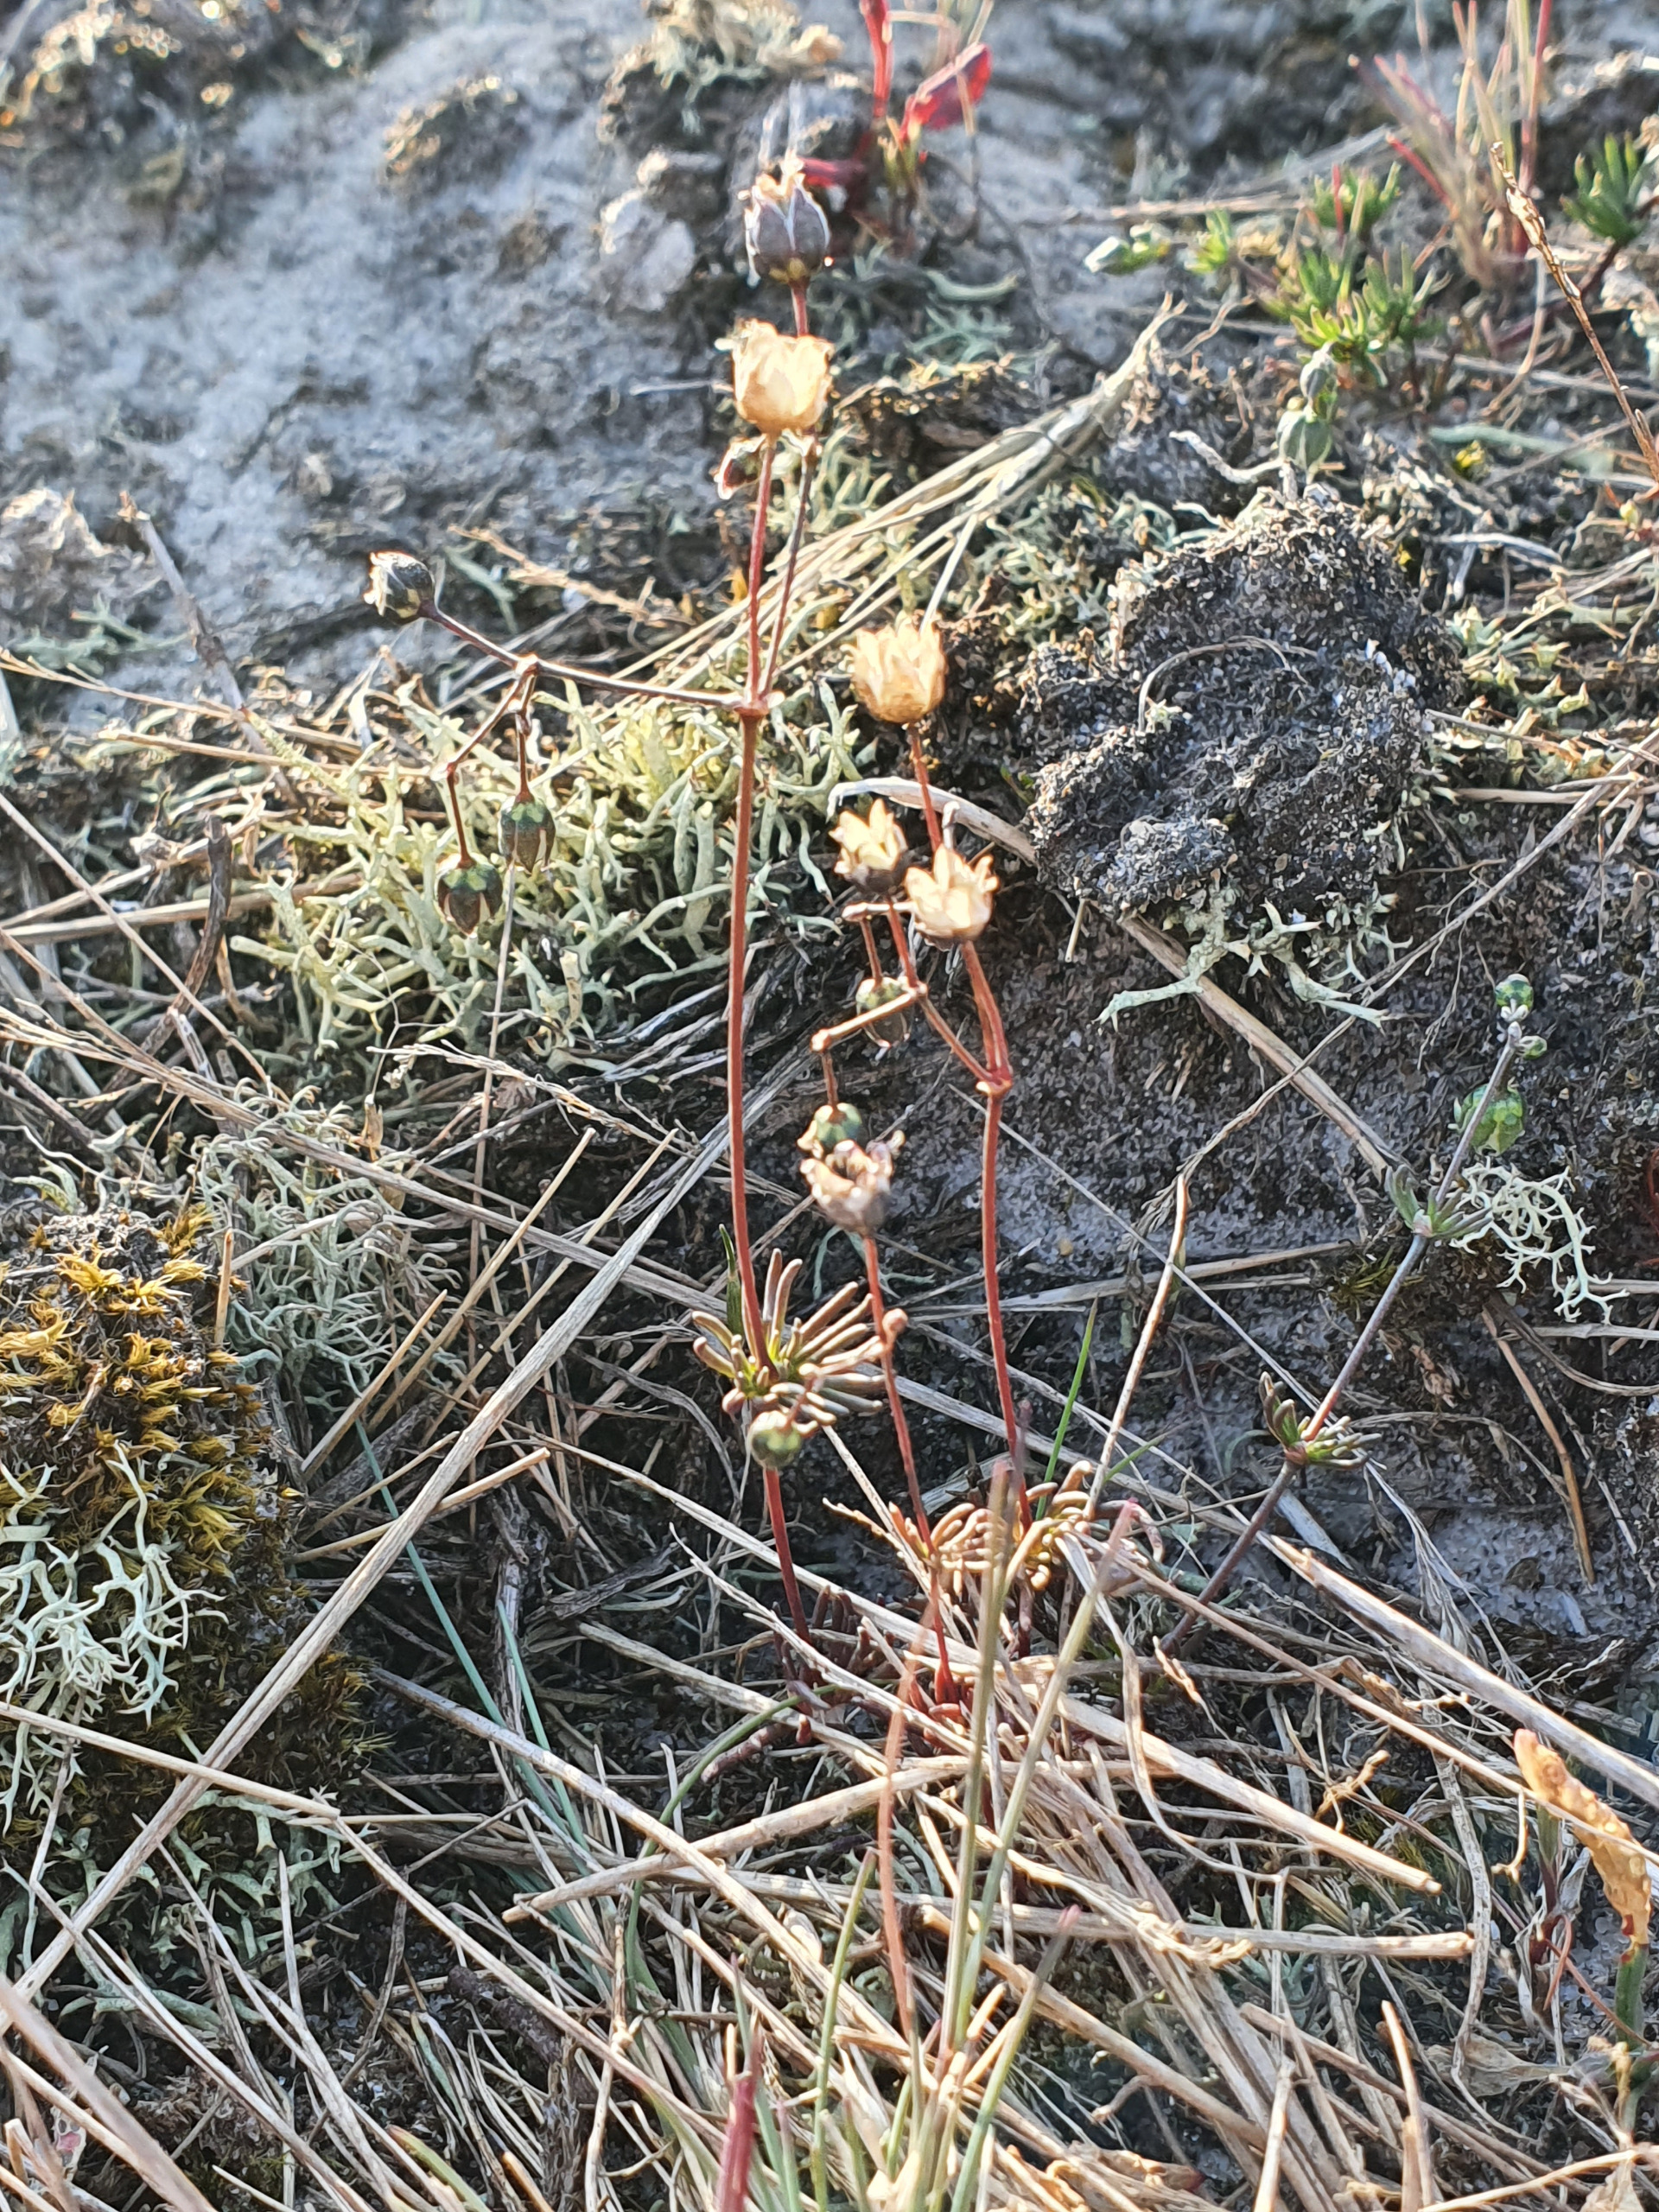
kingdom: Plantae
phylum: Tracheophyta
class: Magnoliopsida
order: Caryophyllales
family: Caryophyllaceae
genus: Spergula
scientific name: Spergula morisonii
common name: Vår-spergel
